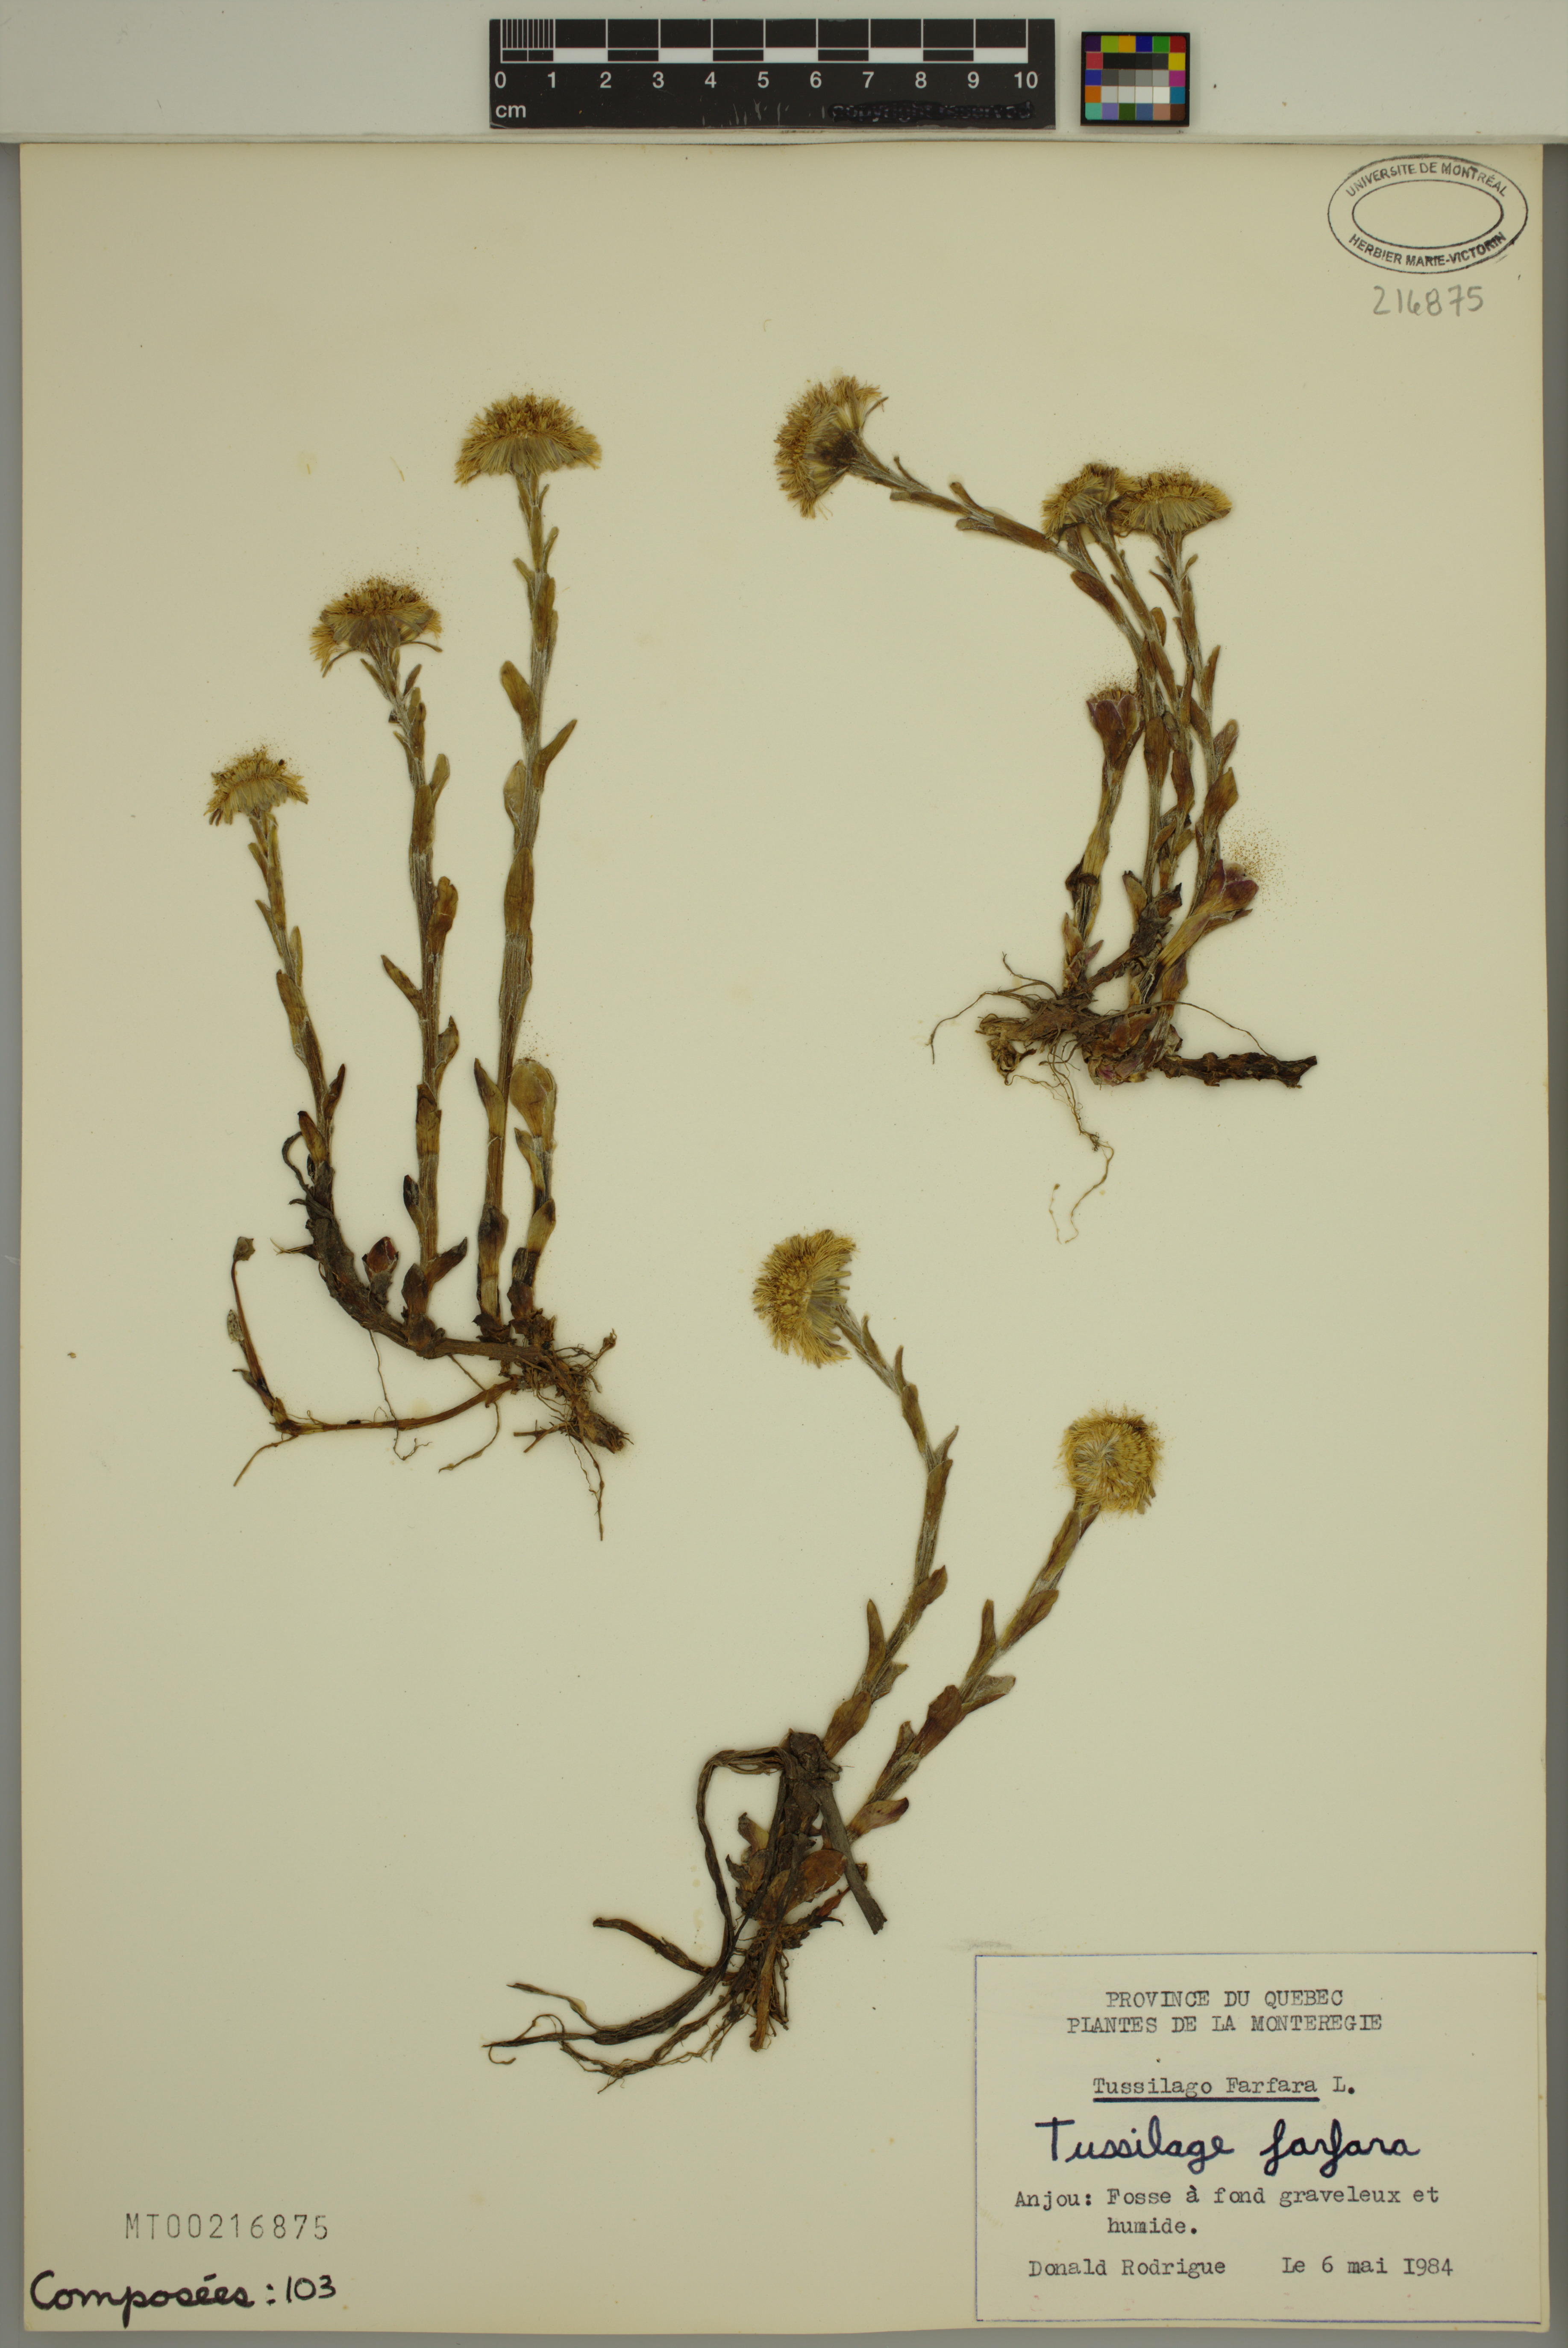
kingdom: Plantae
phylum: Tracheophyta
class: Magnoliopsida
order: Asterales
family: Asteraceae
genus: Tussilago
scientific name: Tussilago farfara
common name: Coltsfoot
